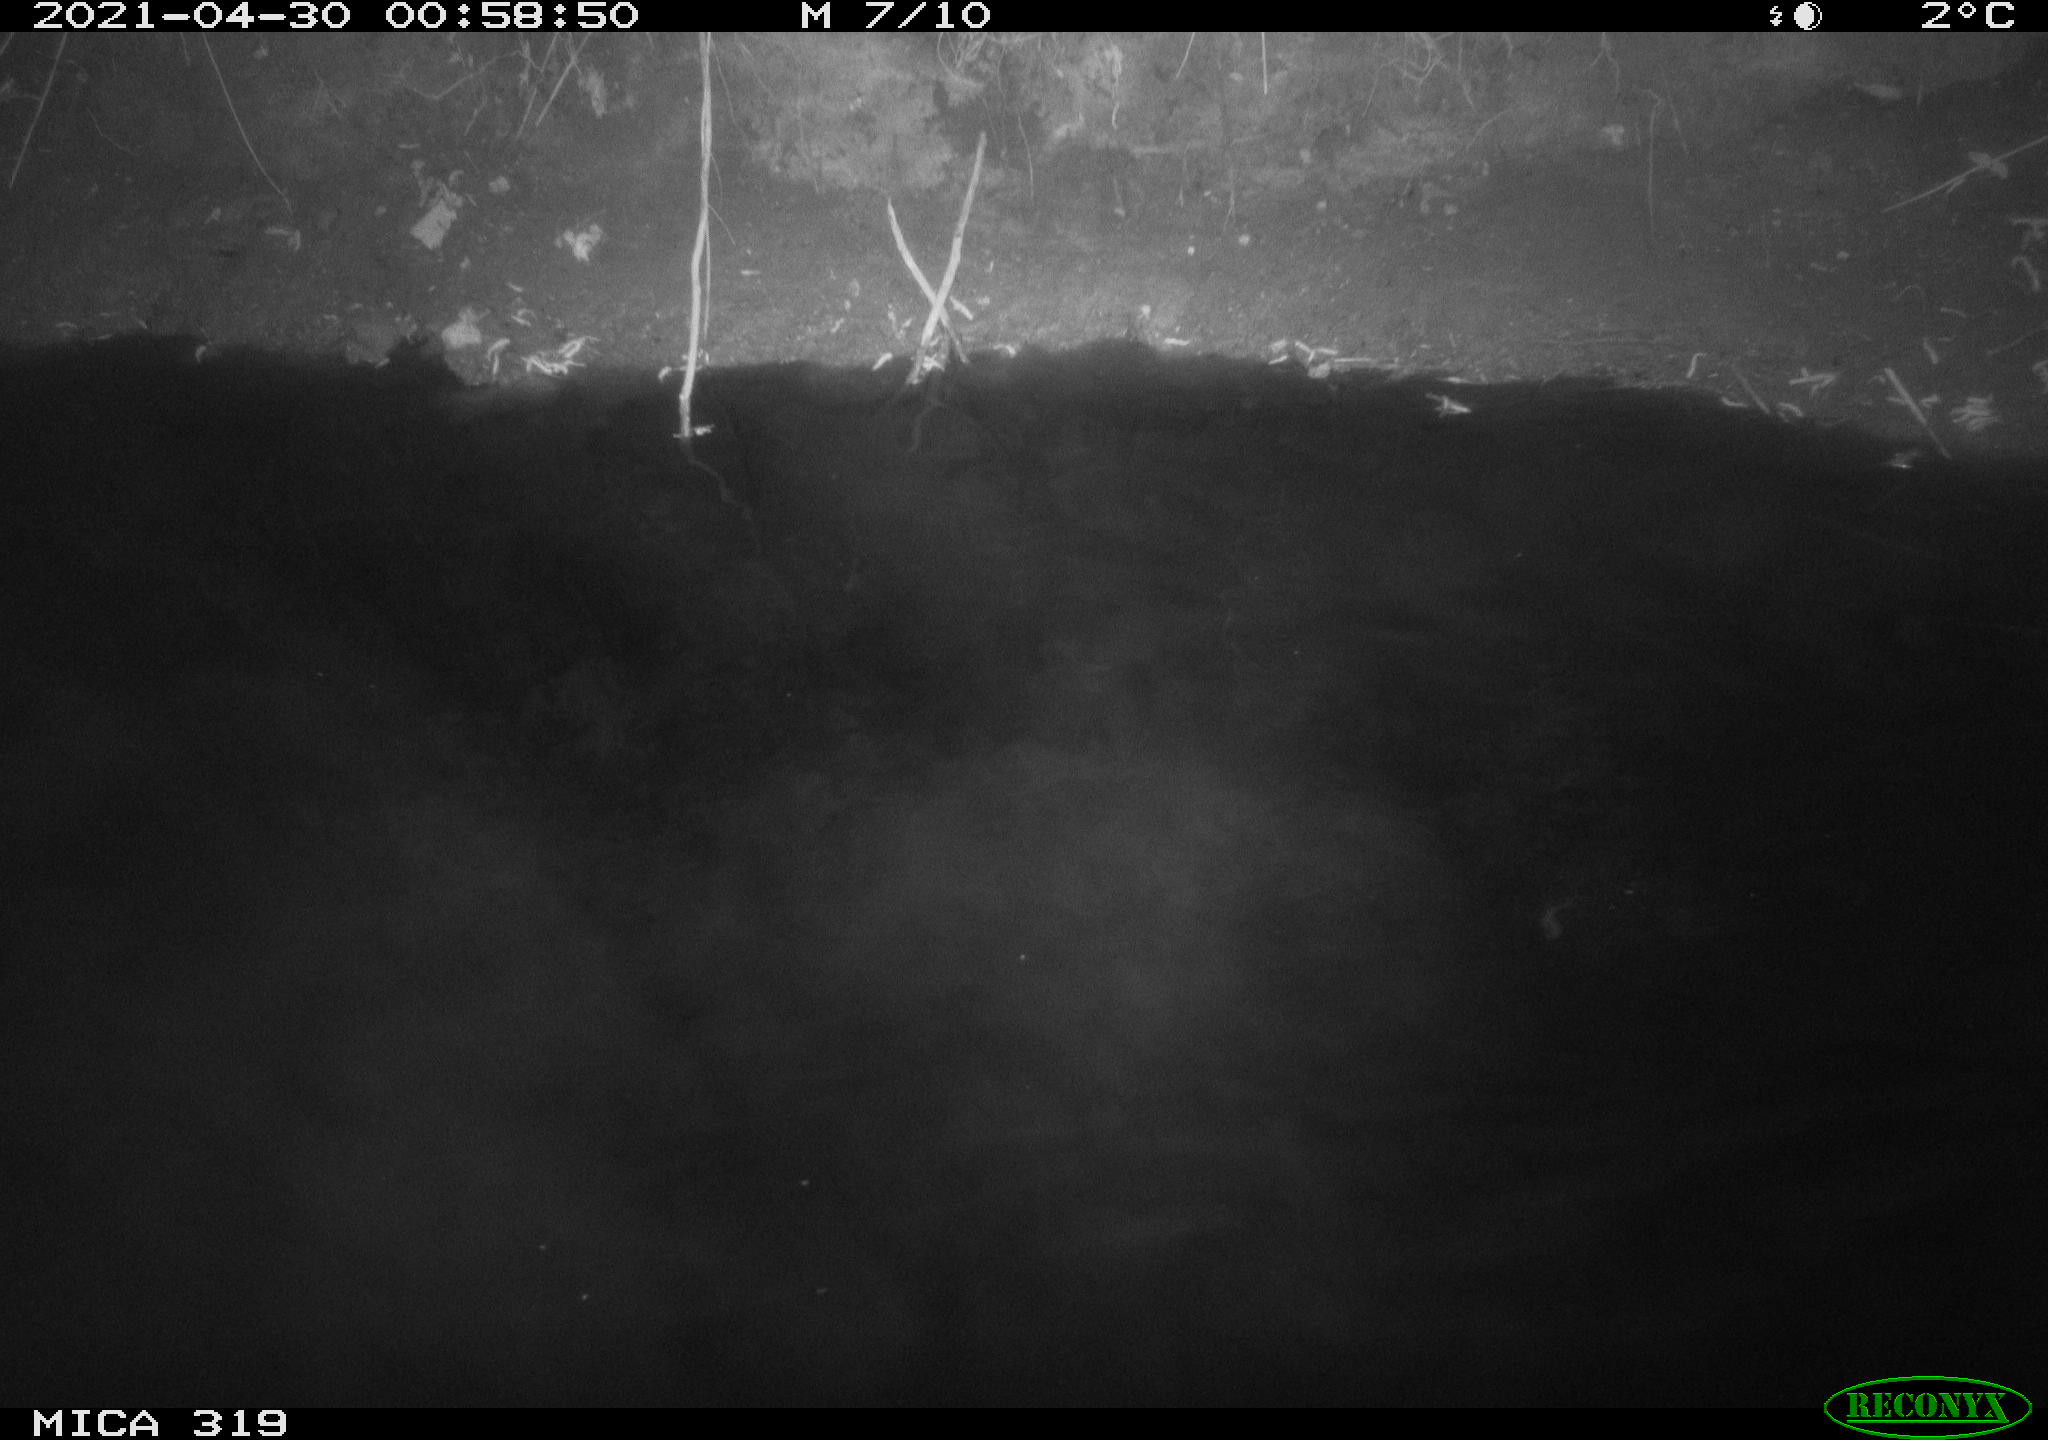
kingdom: Animalia
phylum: Chordata
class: Aves
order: Anseriformes
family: Anatidae
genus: Anas
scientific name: Anas platyrhynchos
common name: Mallard
